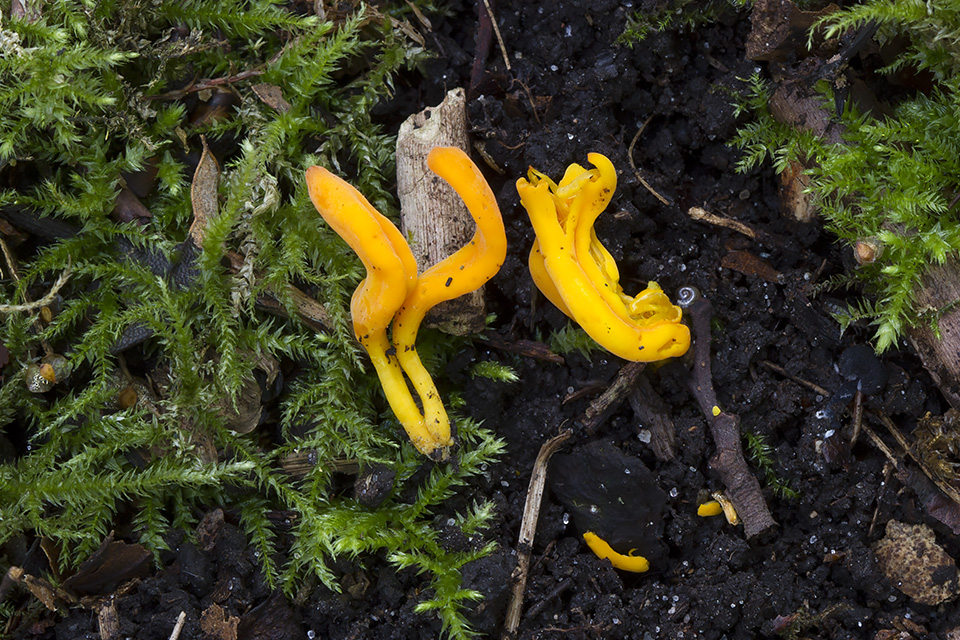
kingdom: Fungi
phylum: Basidiomycota
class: Agaricomycetes
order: Agaricales
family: Clavariaceae
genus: Clavulinopsis
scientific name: Clavulinopsis laeticolor
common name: flamme-køllesvamp
